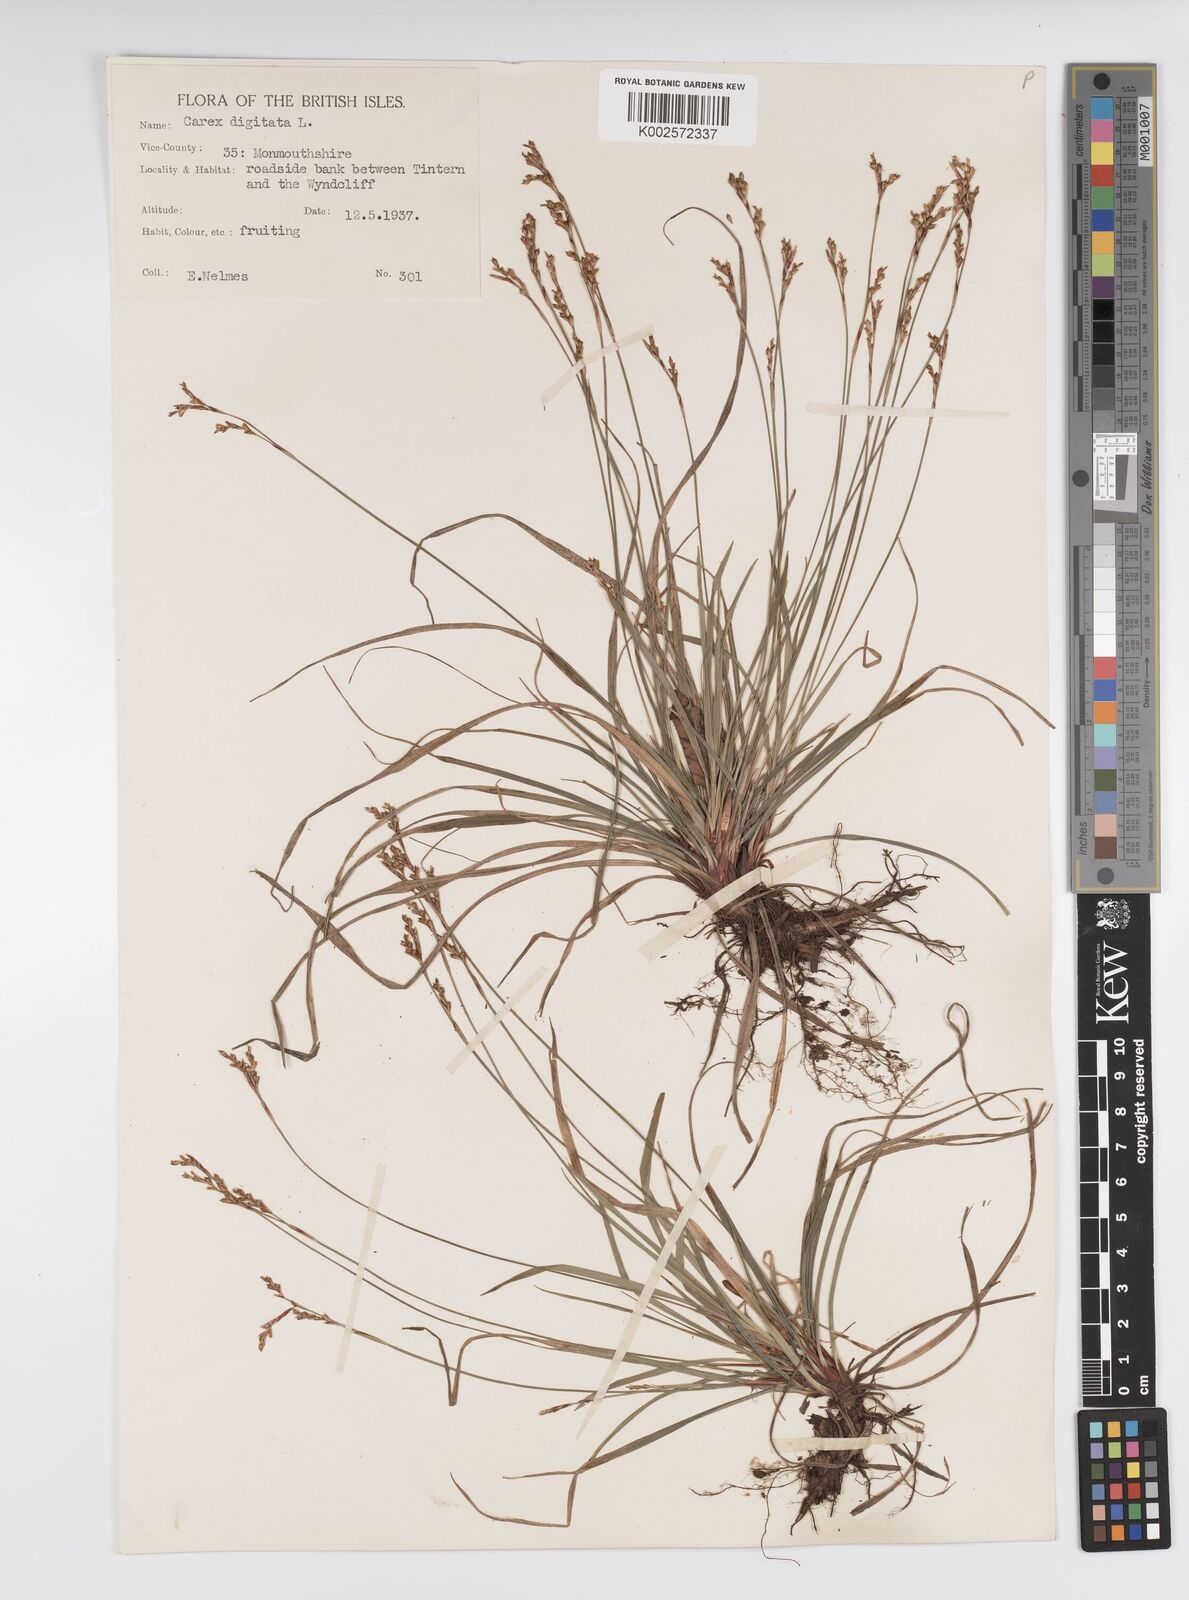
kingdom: Plantae
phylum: Tracheophyta
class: Liliopsida
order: Poales
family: Cyperaceae
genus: Carex
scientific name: Carex digitata
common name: Fingered sedge
